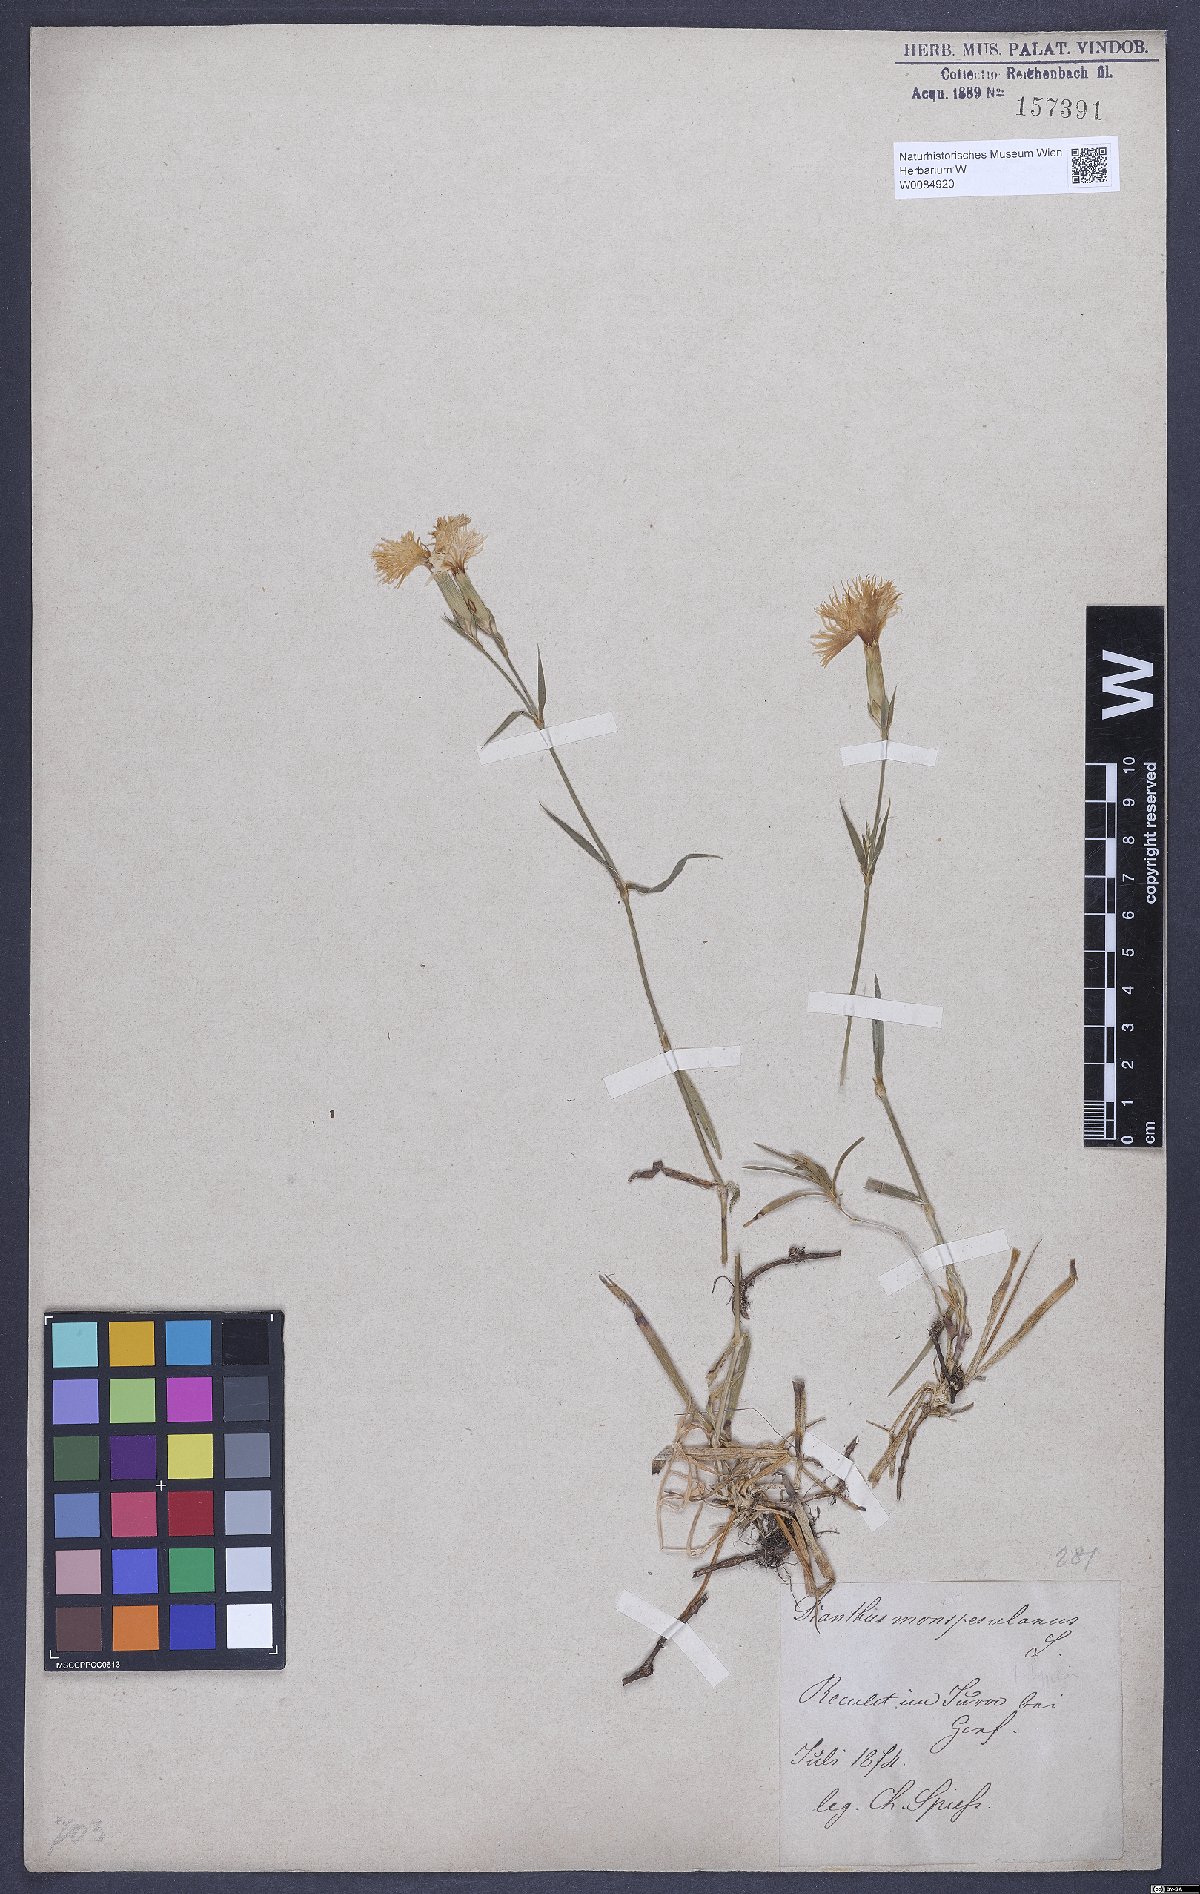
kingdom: Plantae
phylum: Tracheophyta
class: Magnoliopsida
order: Caryophyllales
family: Caryophyllaceae
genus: Dianthus
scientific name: Dianthus hyssopifolius
